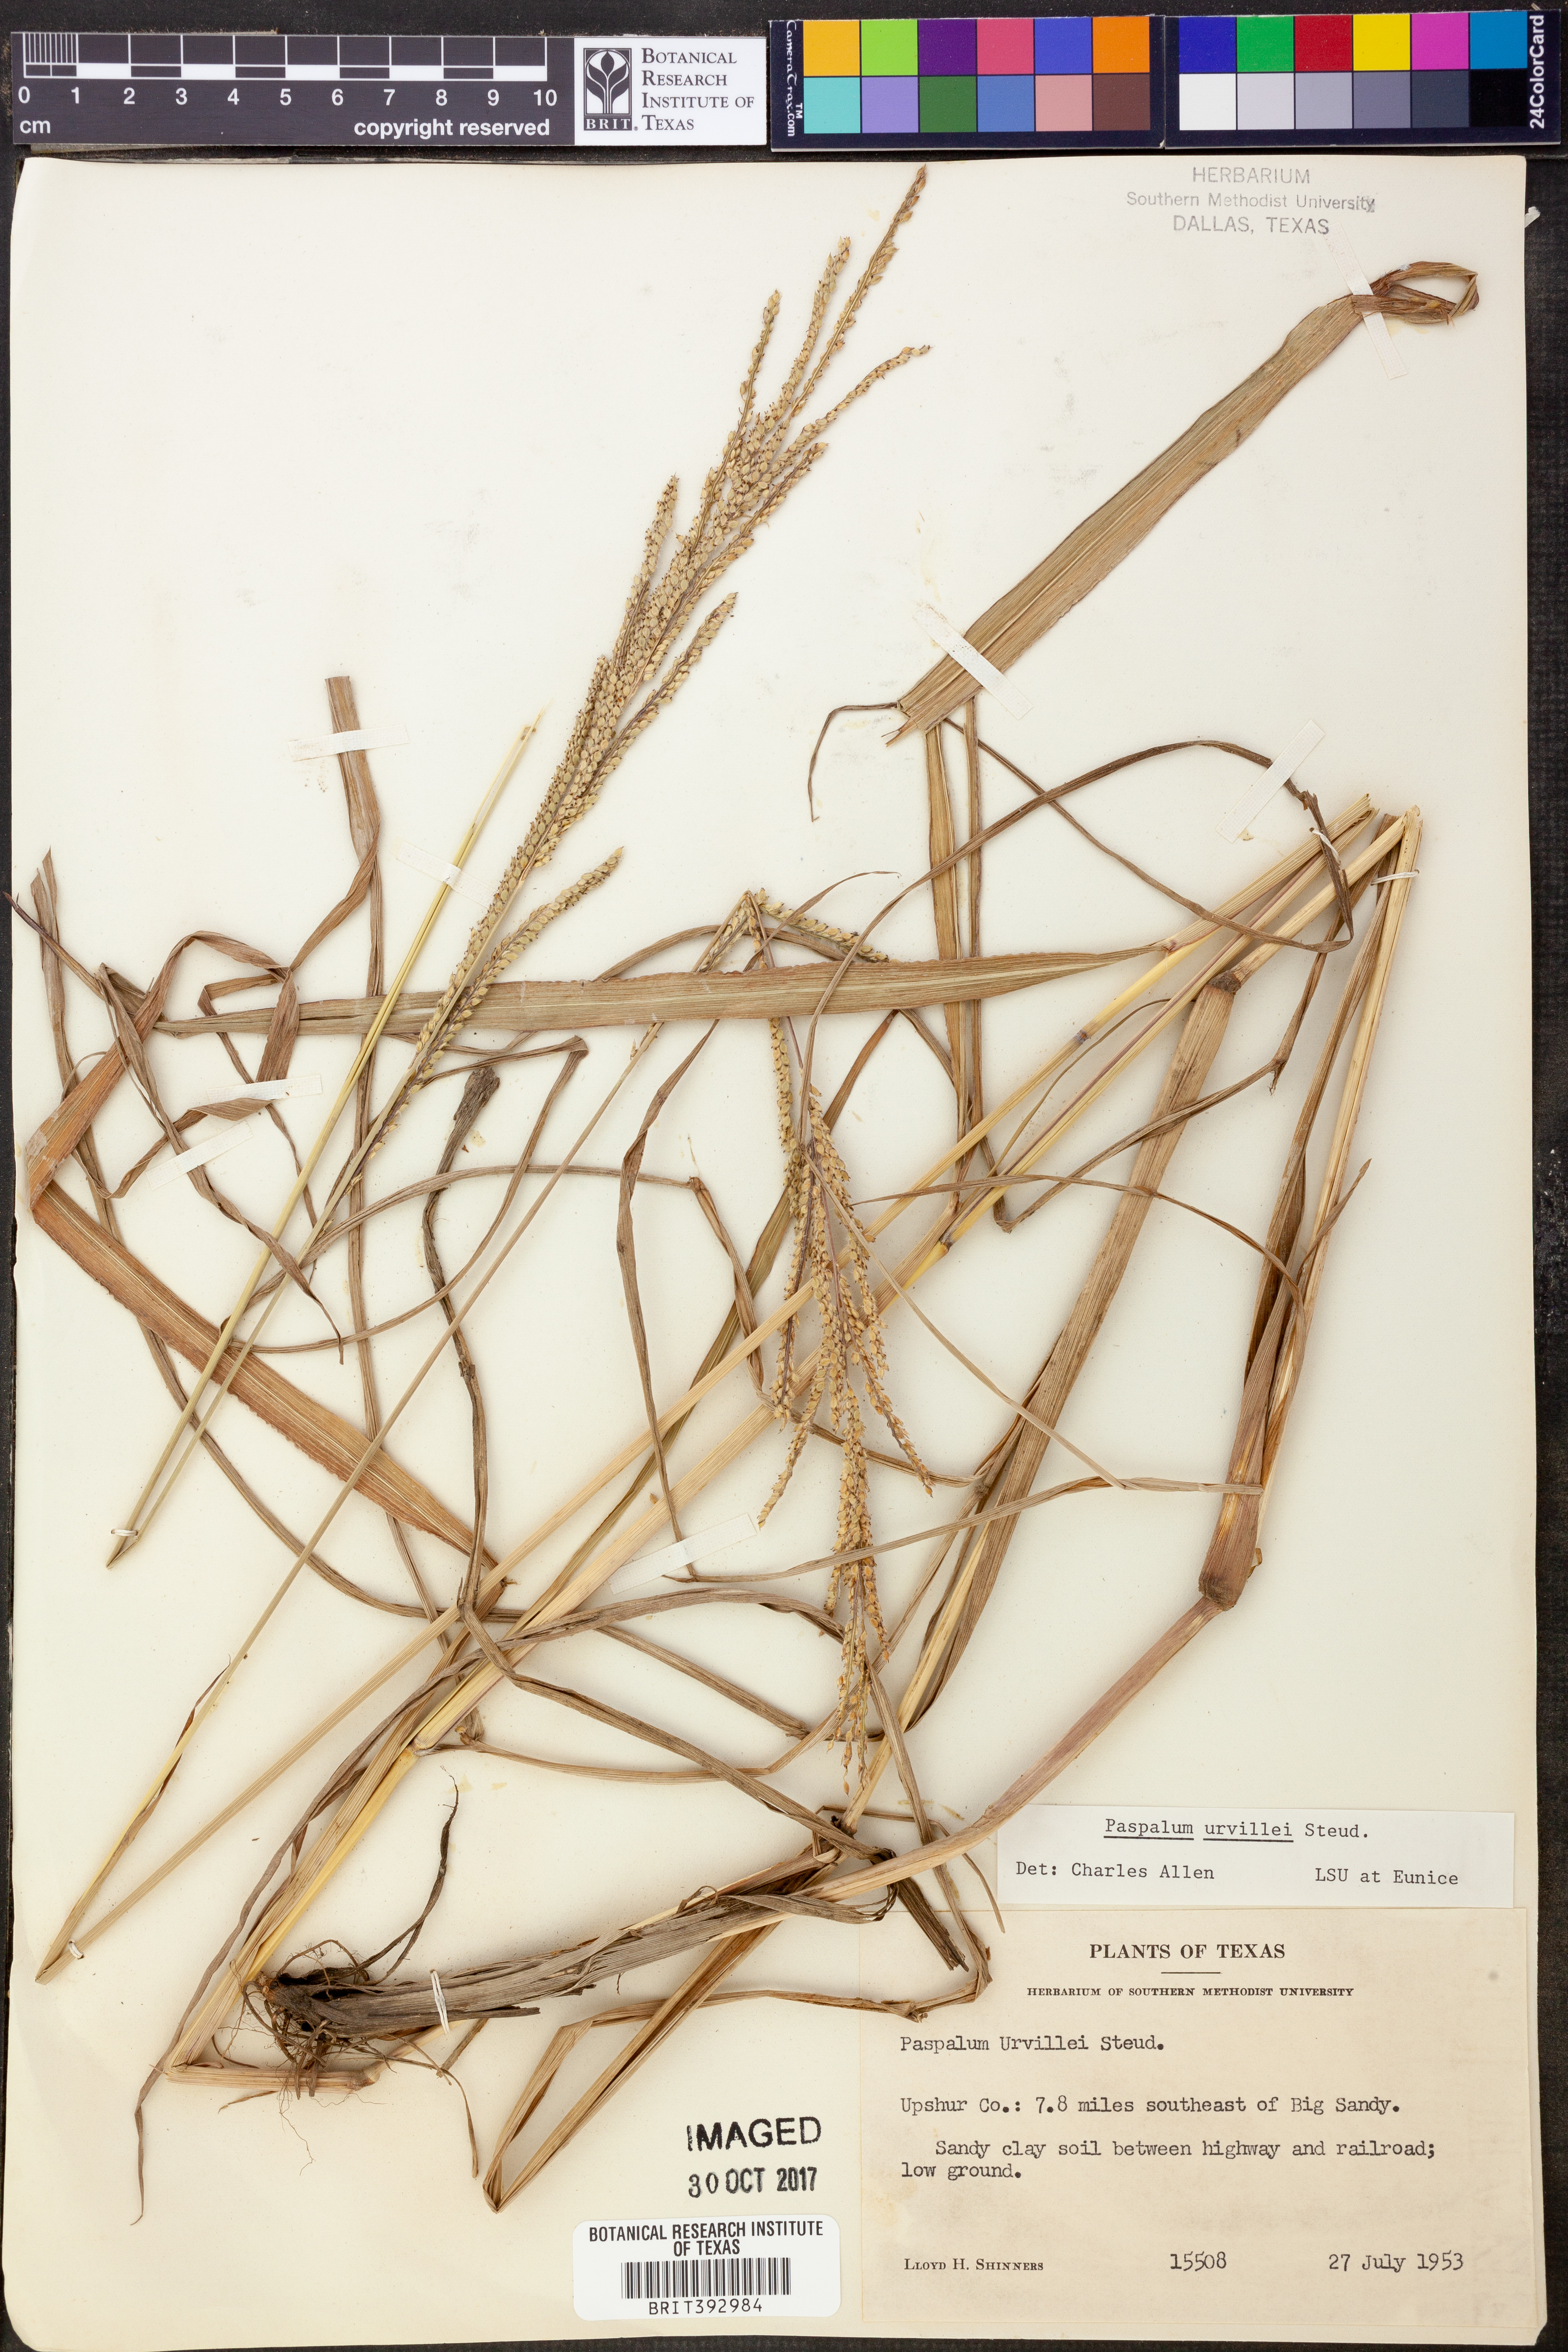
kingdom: Plantae
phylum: Tracheophyta
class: Liliopsida
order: Poales
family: Poaceae
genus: Paspalum
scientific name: Paspalum urvillei
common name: Vasey's grass
